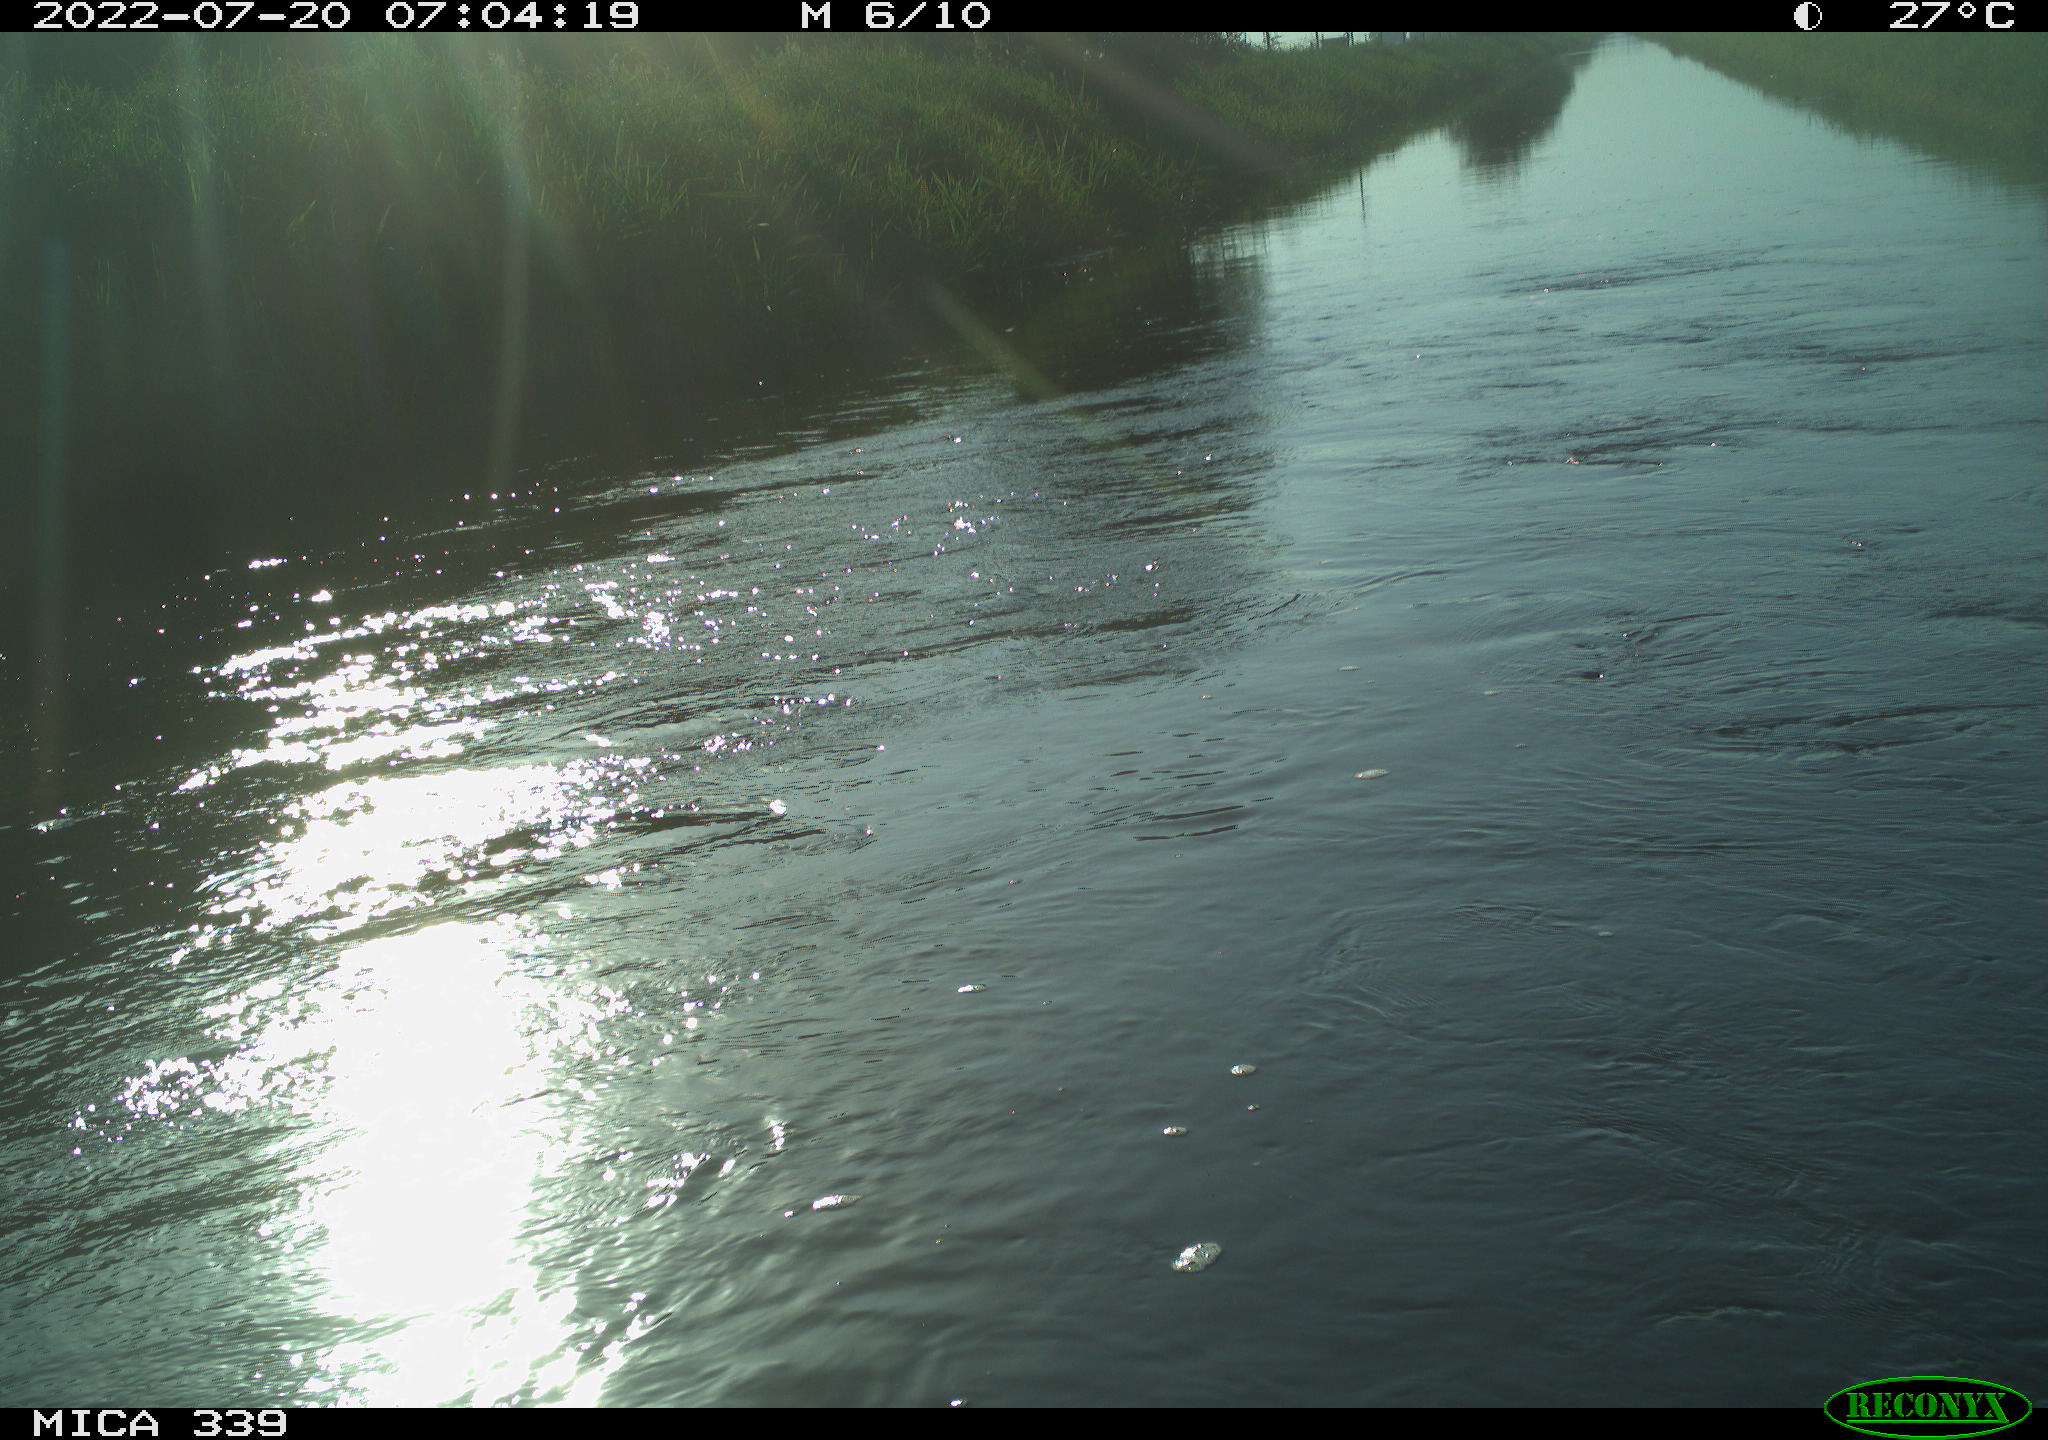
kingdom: Animalia
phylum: Chordata
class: Aves
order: Pelecaniformes
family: Ardeidae
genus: Ardea
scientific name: Ardea cinerea
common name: Grey heron
